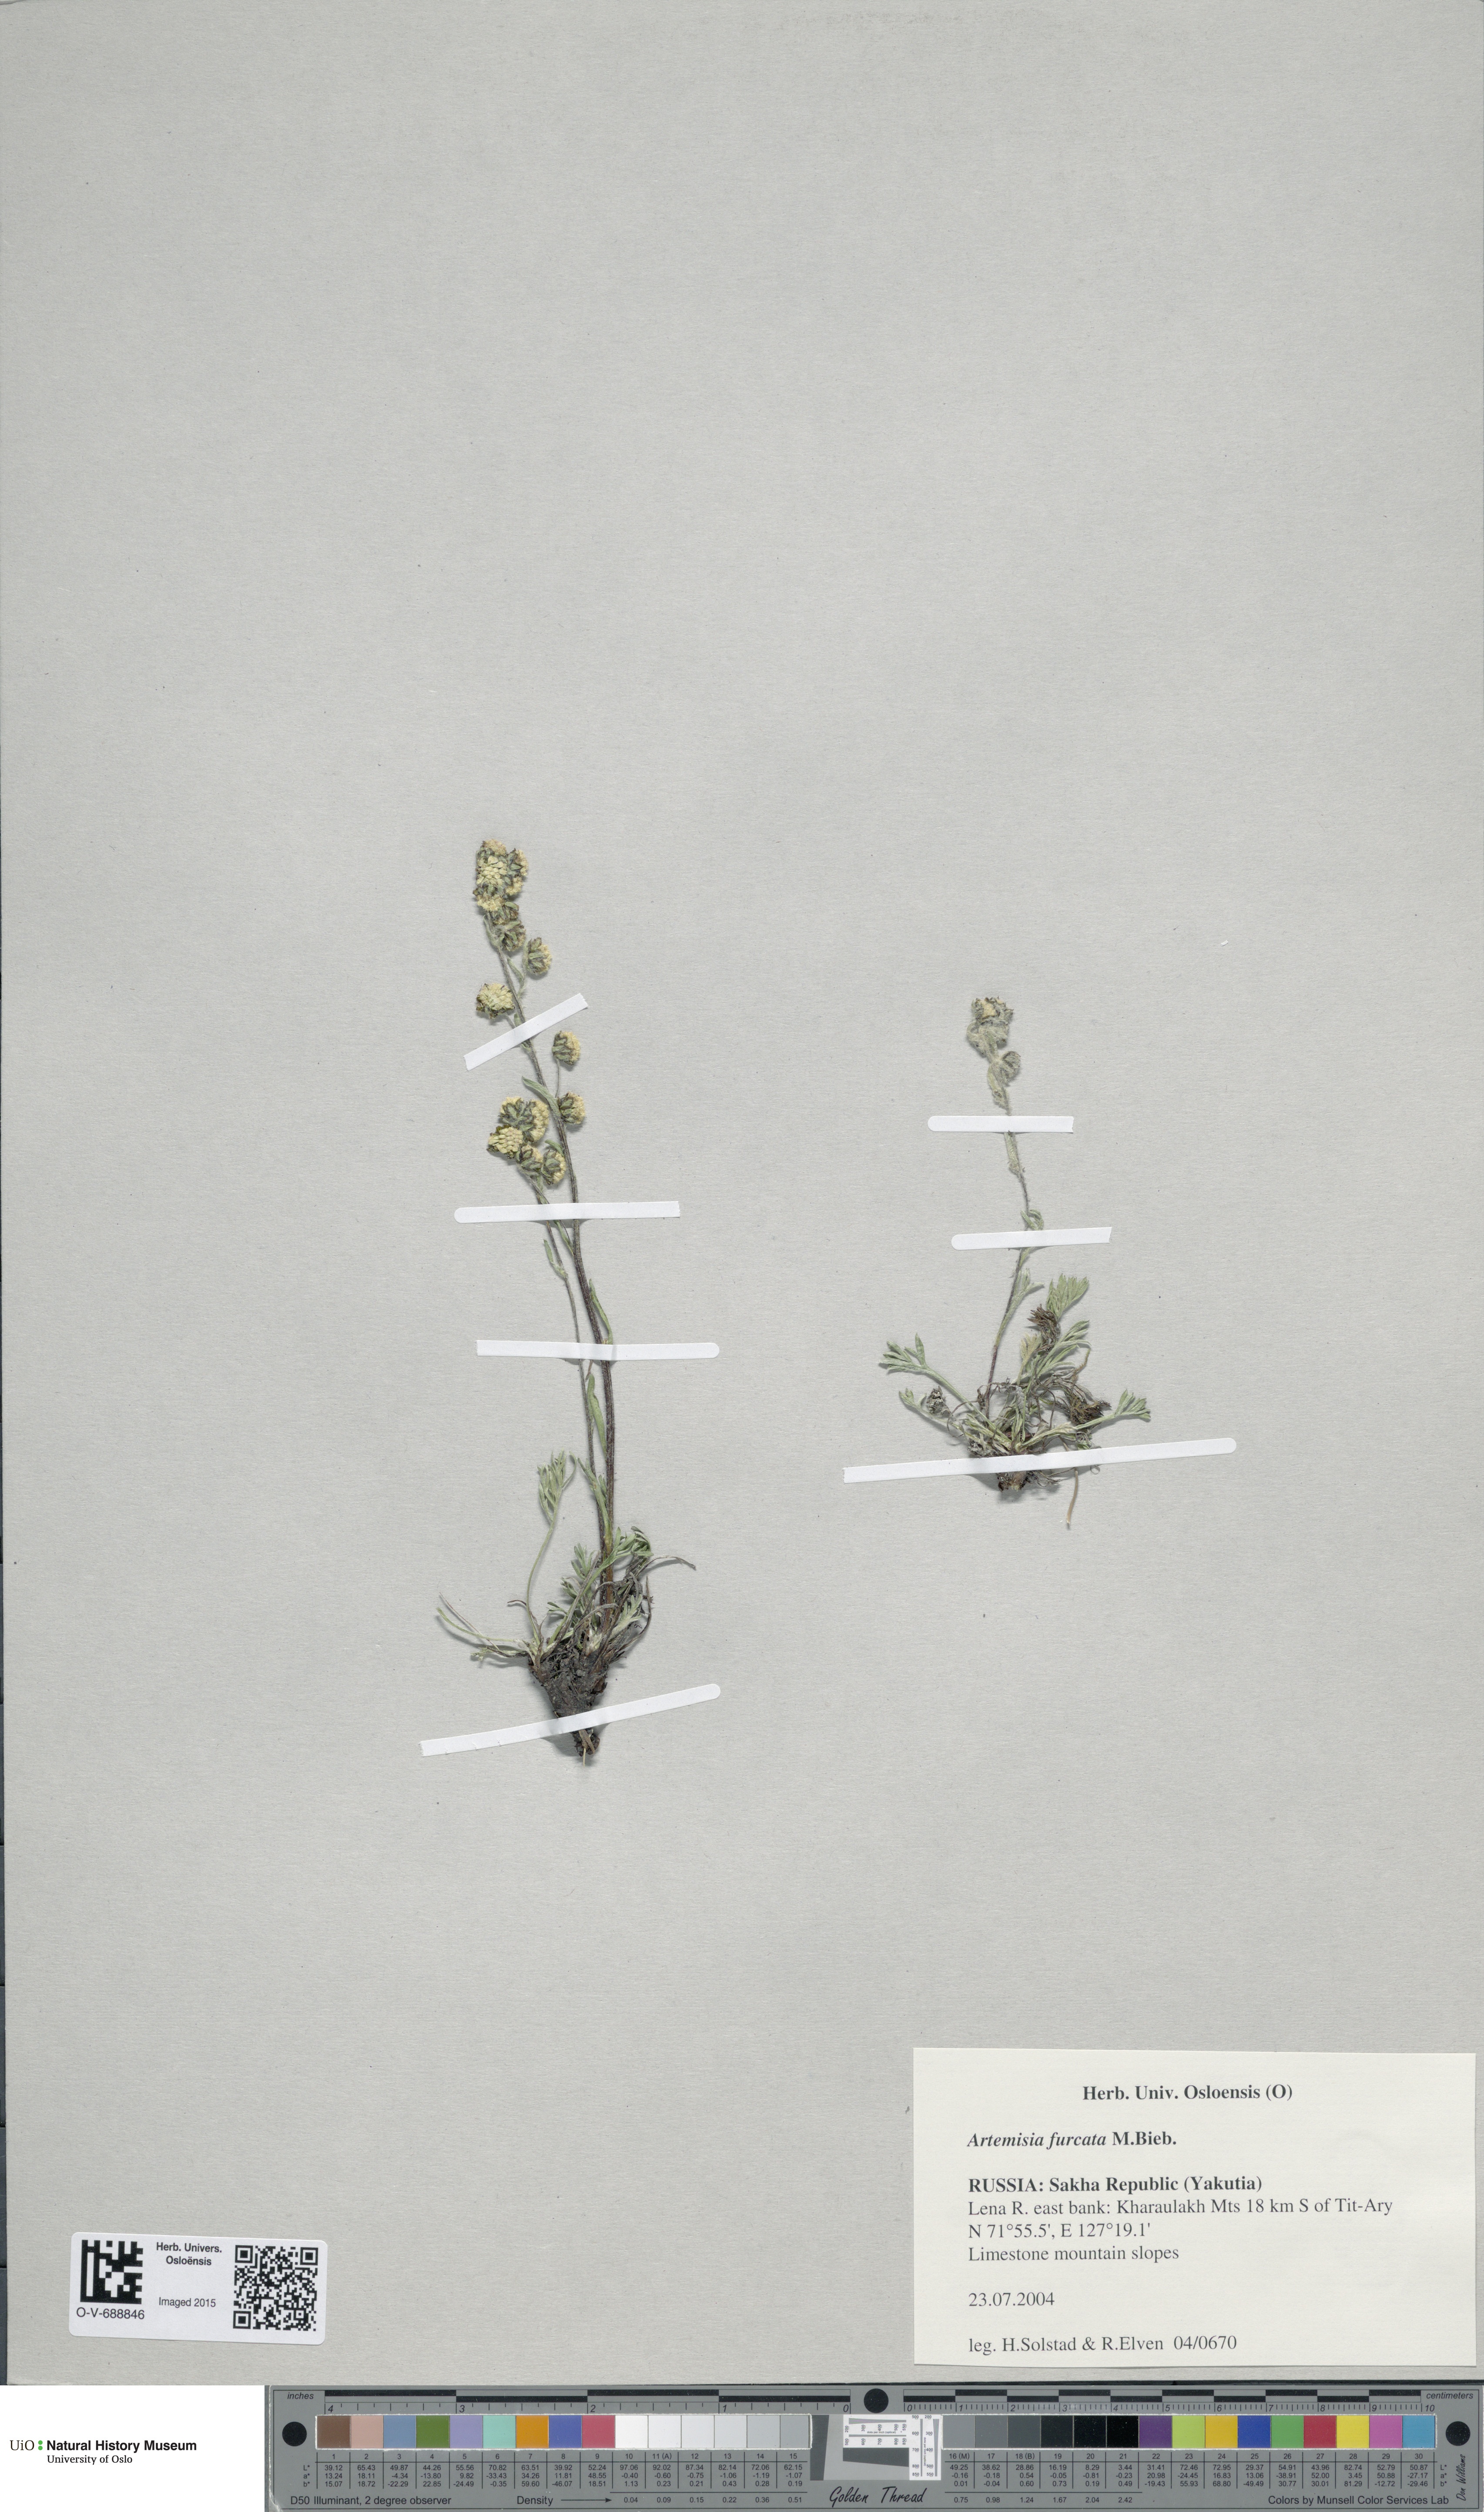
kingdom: Plantae
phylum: Tracheophyta
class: Magnoliopsida
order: Asterales
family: Asteraceae
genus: Artemisia
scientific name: Artemisia furcata
